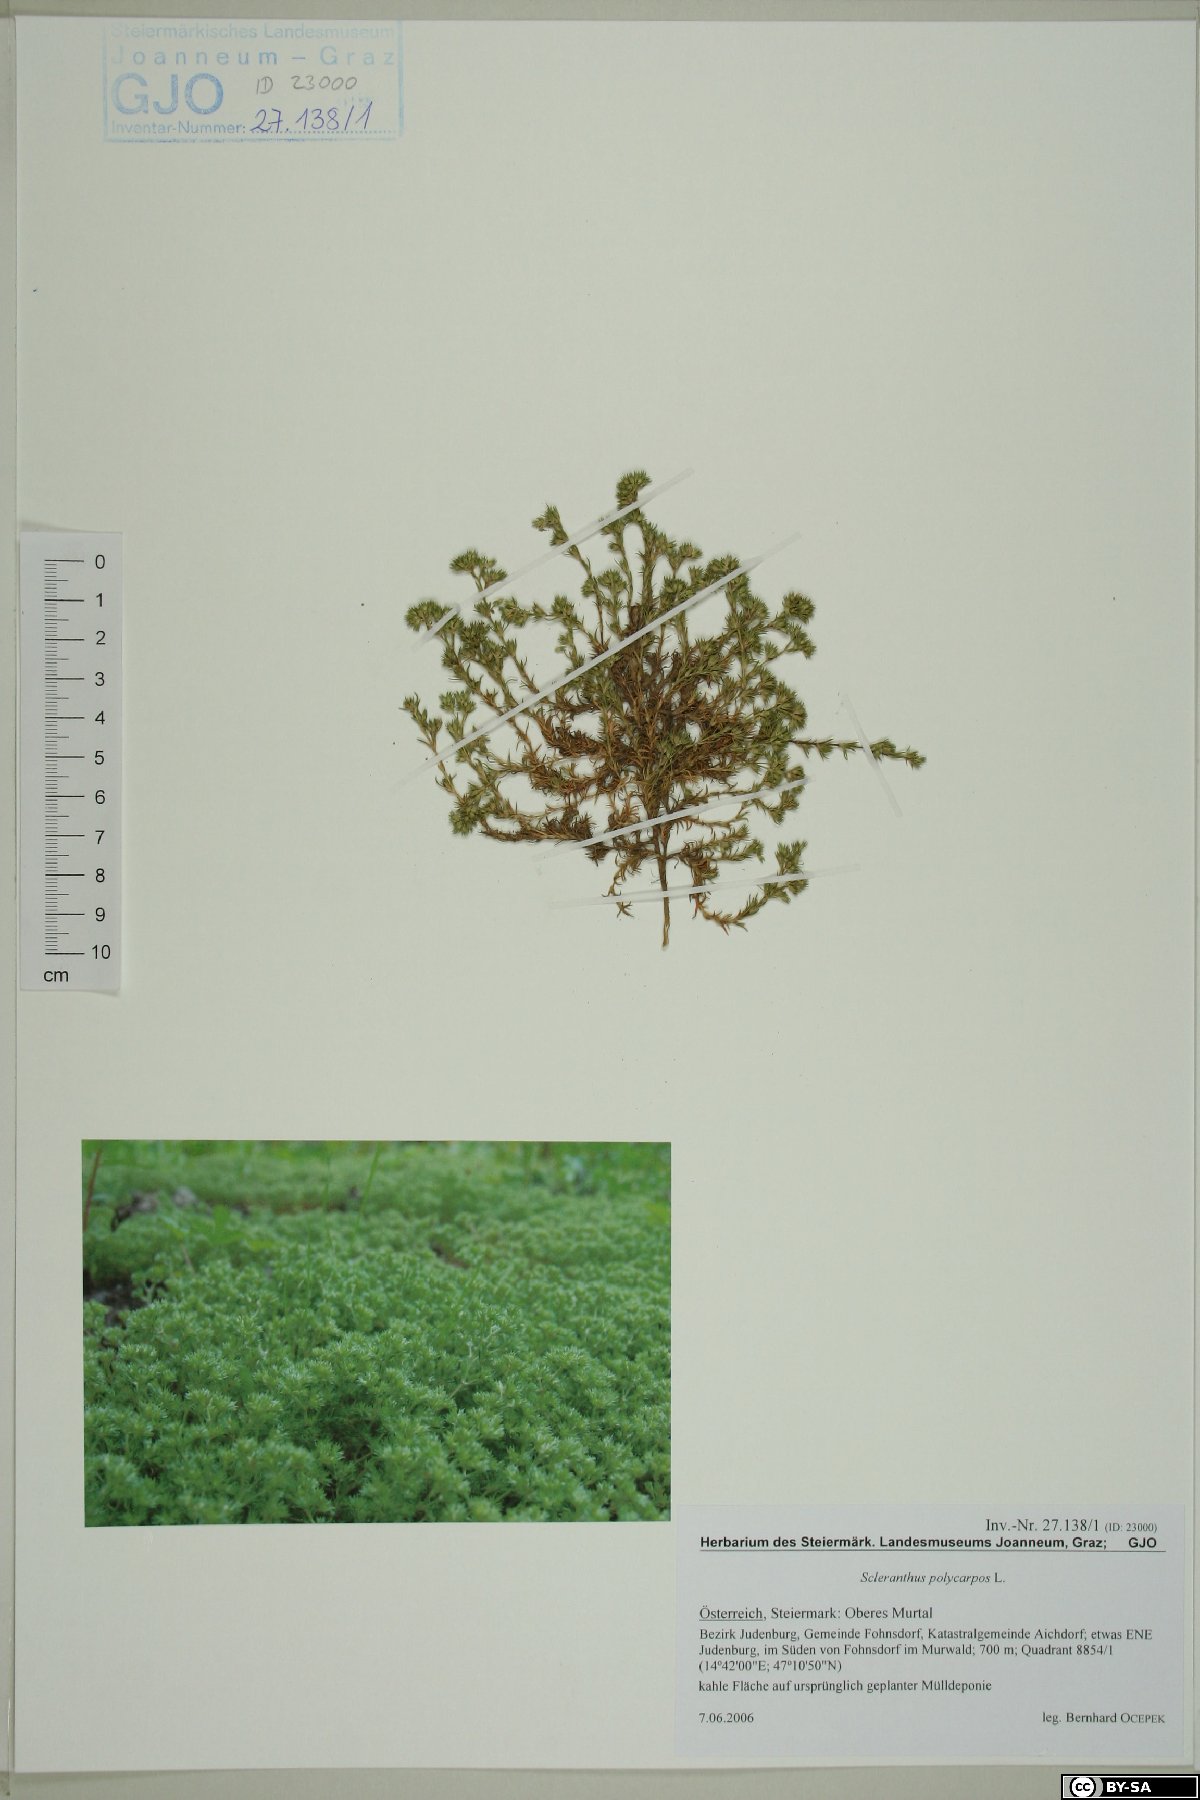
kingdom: Plantae
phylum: Tracheophyta
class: Magnoliopsida
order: Caryophyllales
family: Caryophyllaceae
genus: Scleranthus
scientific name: Scleranthus annuus
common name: Annual knawel
